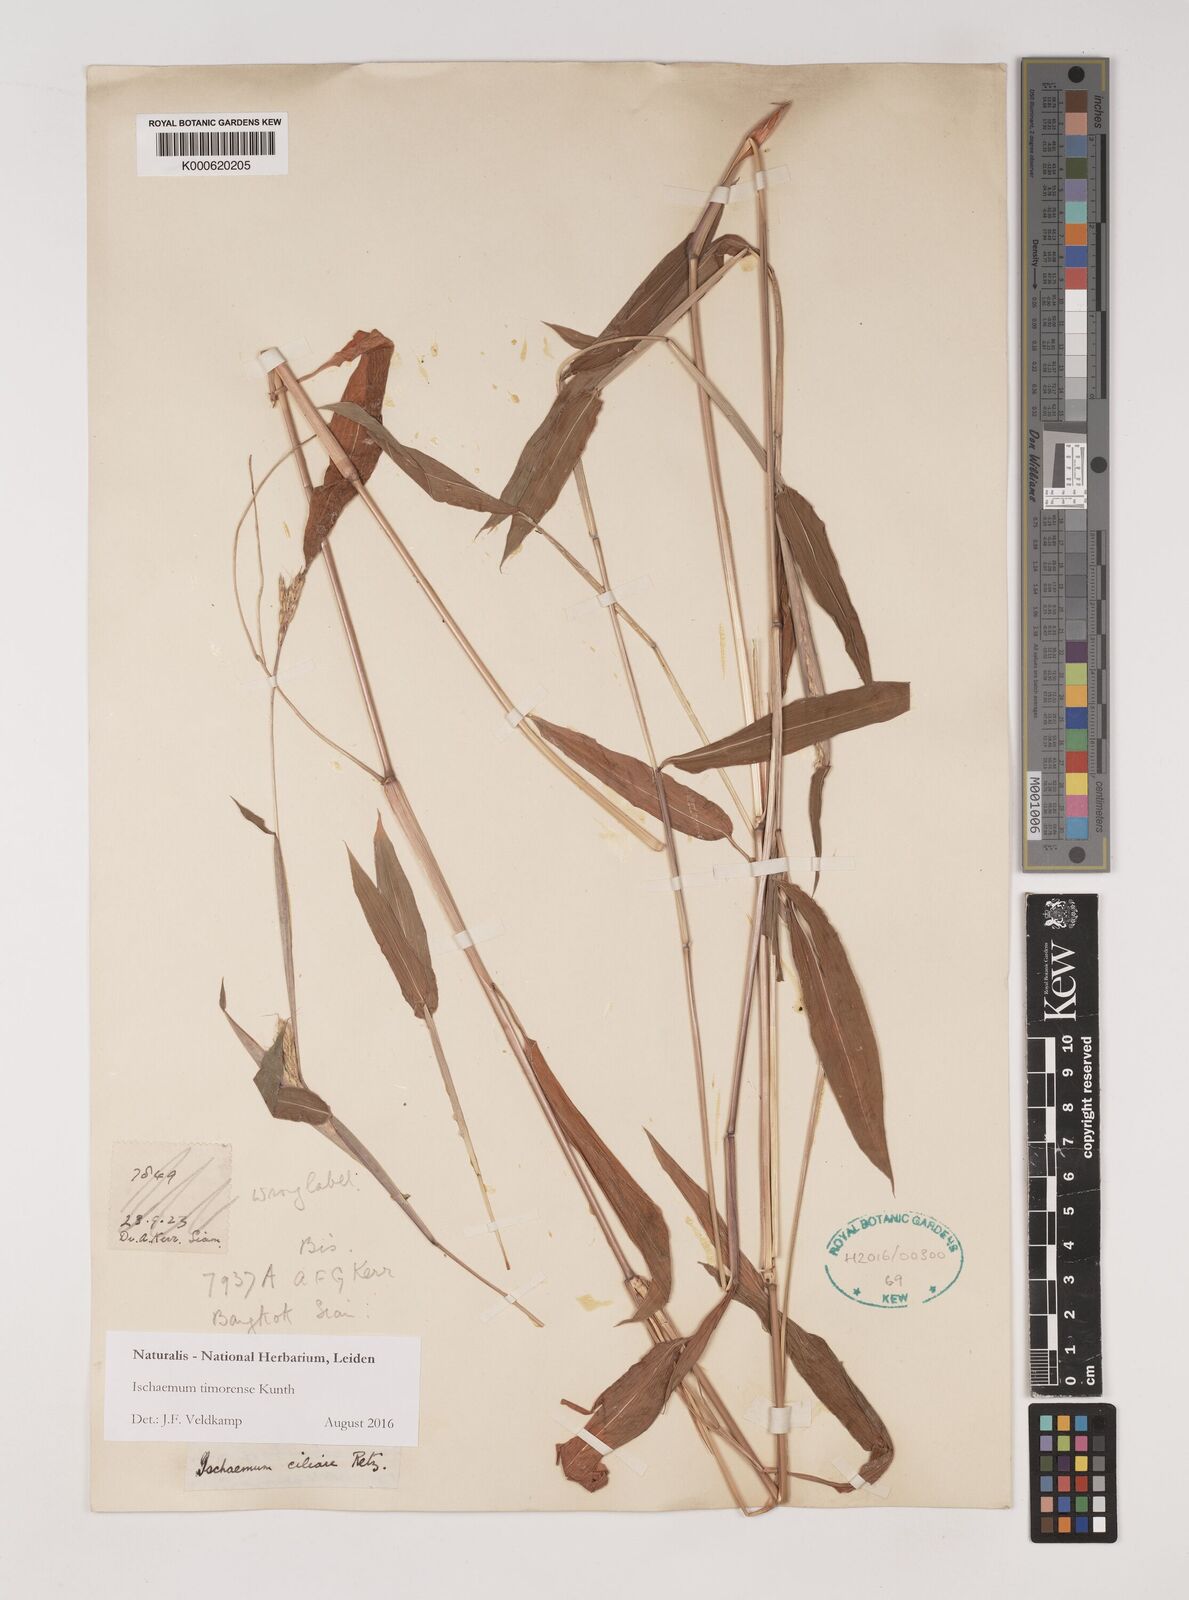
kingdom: Plantae
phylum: Tracheophyta
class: Liliopsida
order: Poales
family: Poaceae
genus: Ischaemum
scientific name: Ischaemum timorense
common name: Stalkleaf murainagrass
